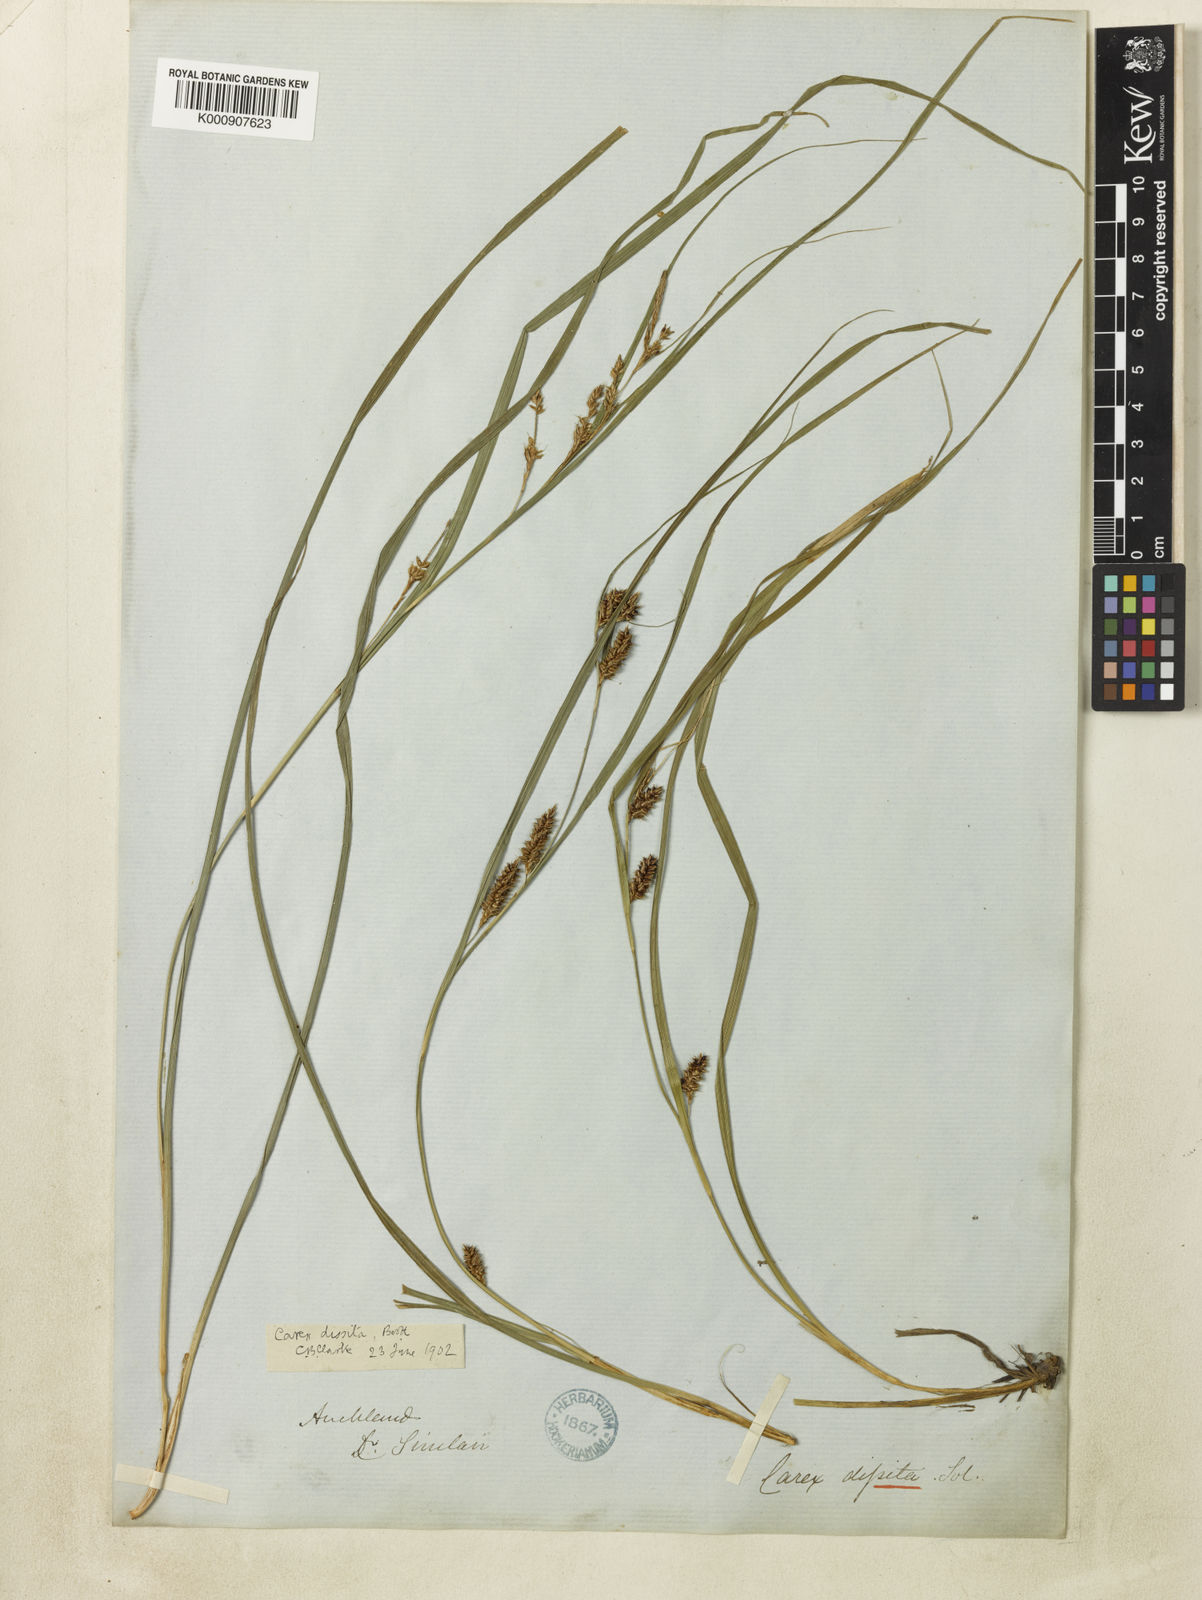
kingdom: Plantae
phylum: Tracheophyta
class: Liliopsida
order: Poales
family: Cyperaceae
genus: Carex
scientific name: Carex
